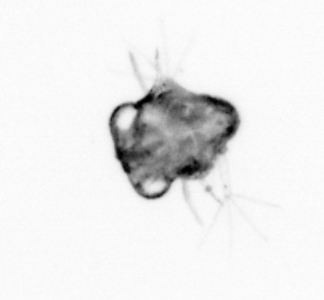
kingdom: Animalia
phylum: Arthropoda
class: Malacostraca
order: Decapoda
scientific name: Decapoda
